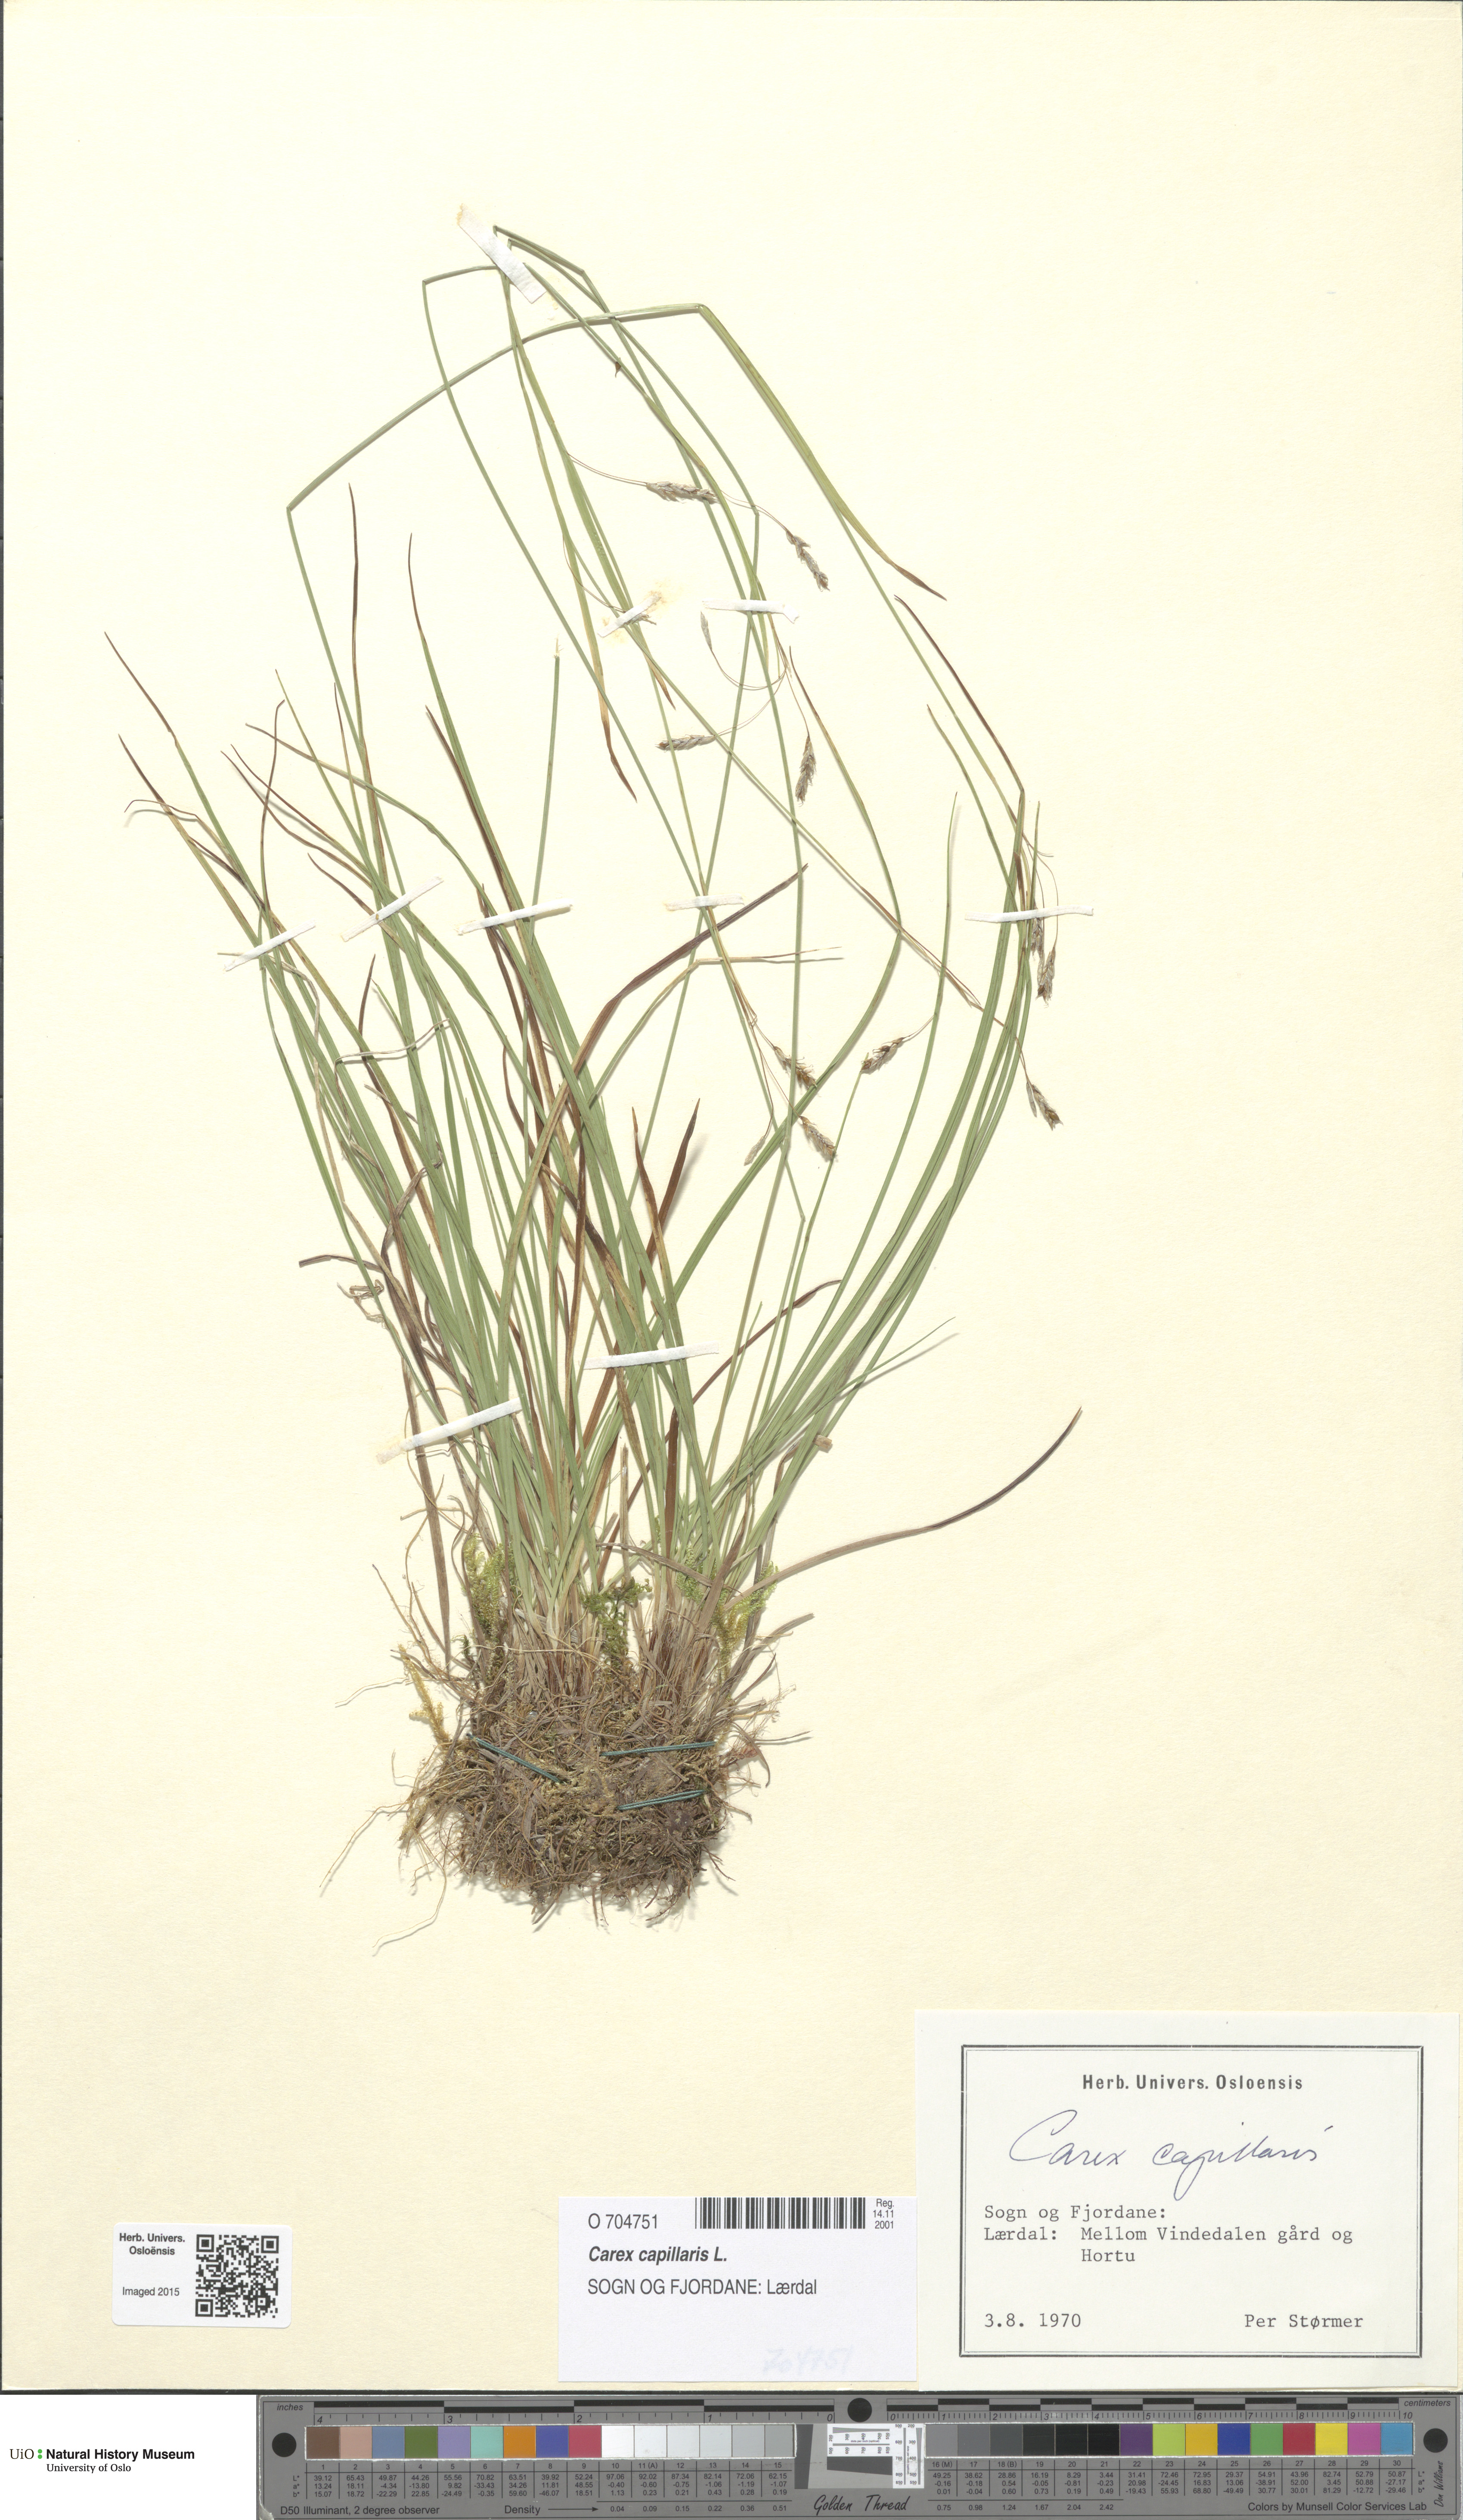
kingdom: Plantae
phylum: Tracheophyta
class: Liliopsida
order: Poales
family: Cyperaceae
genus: Carex
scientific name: Carex capillaris
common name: Hair sedge
